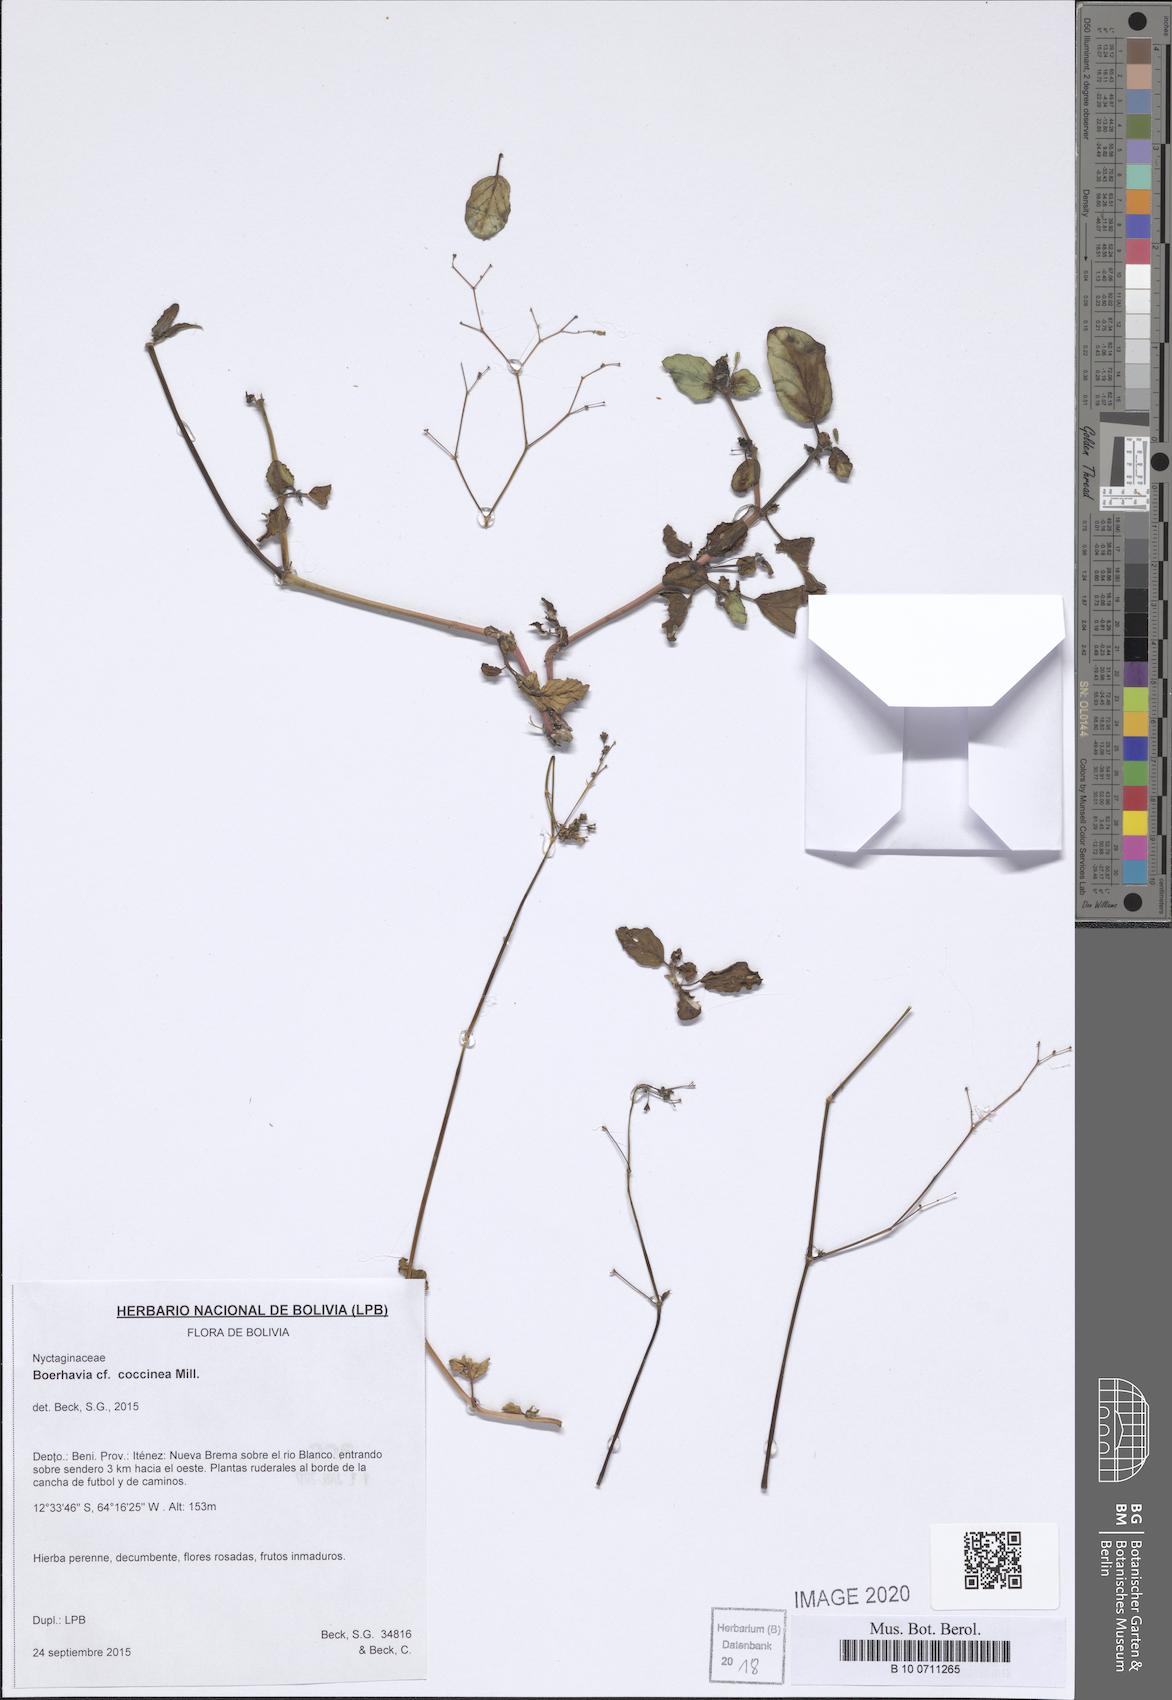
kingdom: Plantae
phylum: Tracheophyta
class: Magnoliopsida
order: Caryophyllales
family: Nyctaginaceae
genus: Boerhavia
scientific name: Boerhavia coccinea
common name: Scarlet spiderling
